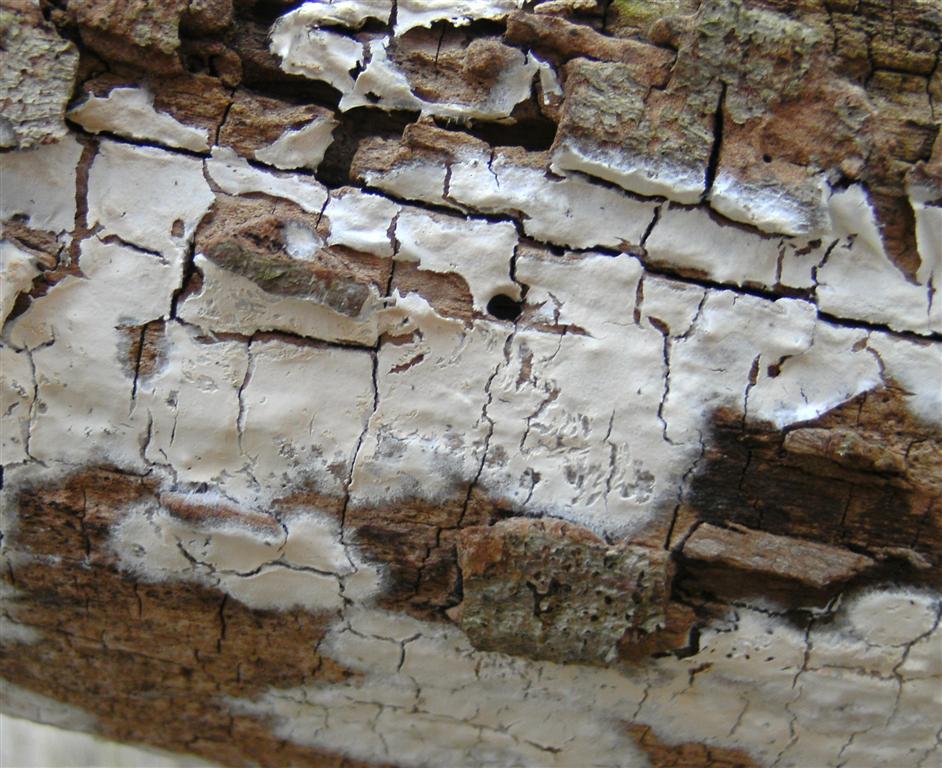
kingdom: Fungi
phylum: Basidiomycota
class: Agaricomycetes
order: Agaricales
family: Cyphellaceae
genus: Granulobasidium
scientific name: Granulobasidium vellereum
